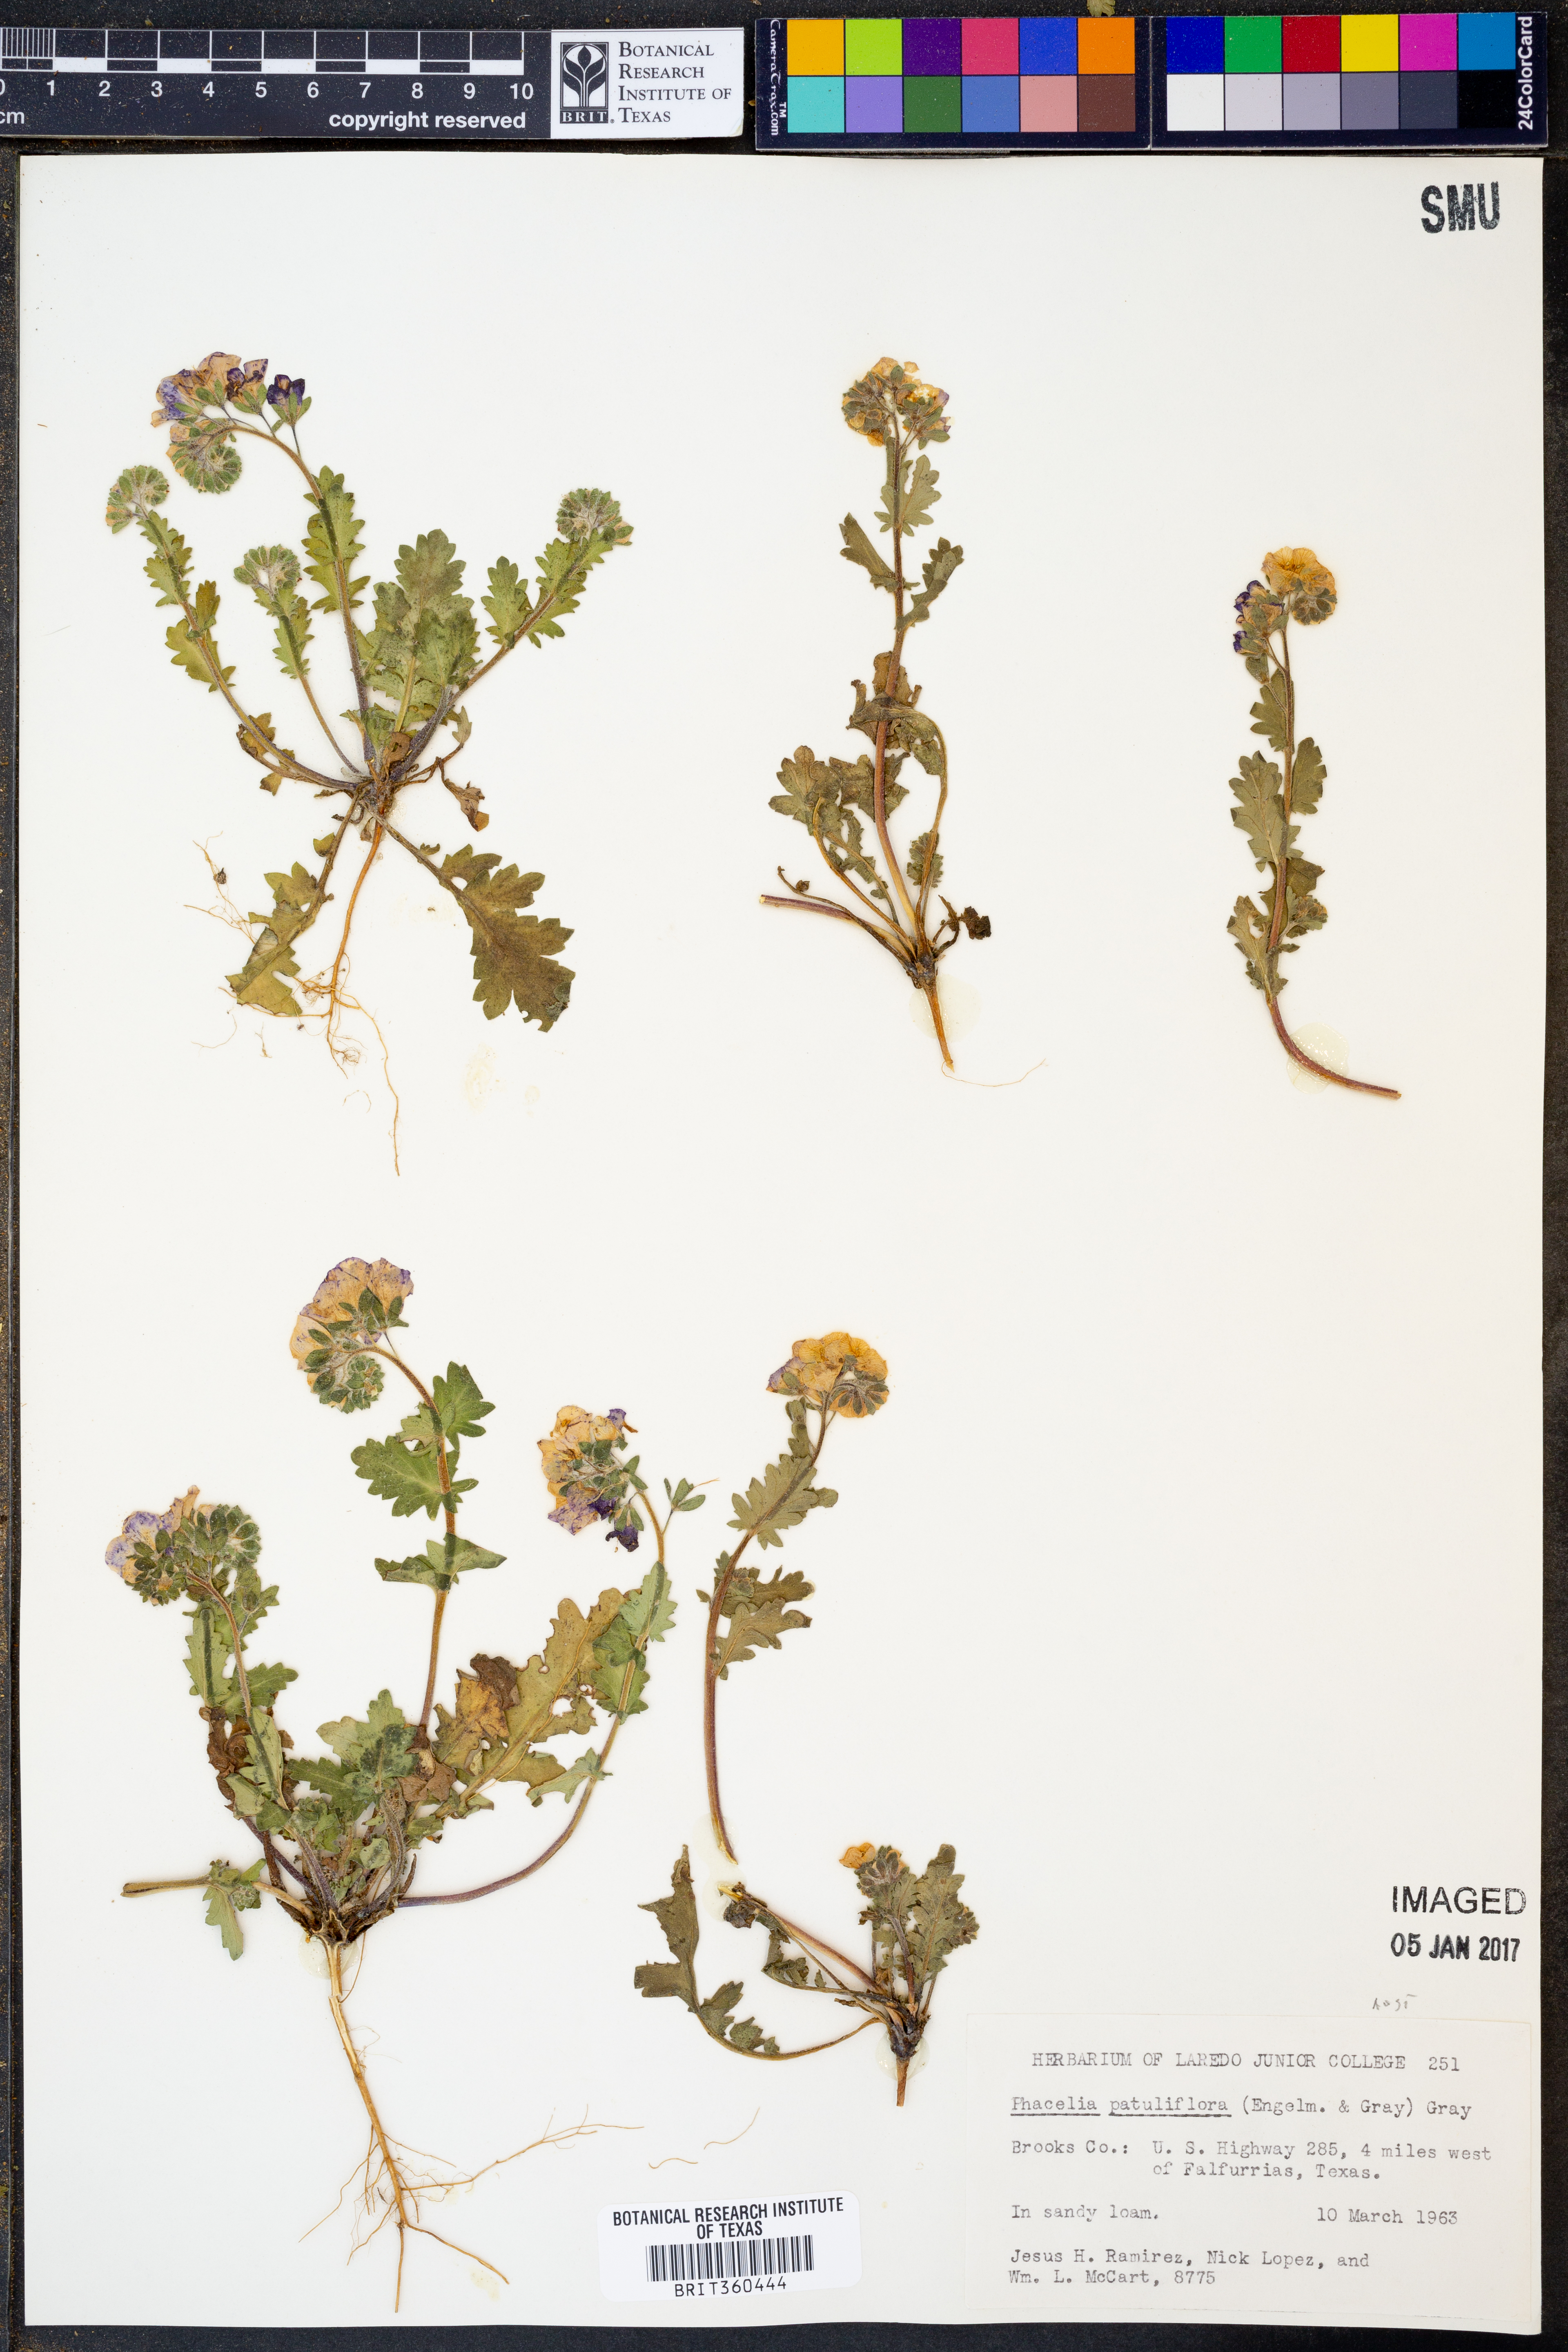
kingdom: Plantae
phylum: Tracheophyta
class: Magnoliopsida
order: Boraginales
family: Hydrophyllaceae
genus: Phacelia
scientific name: Phacelia patuliflora
